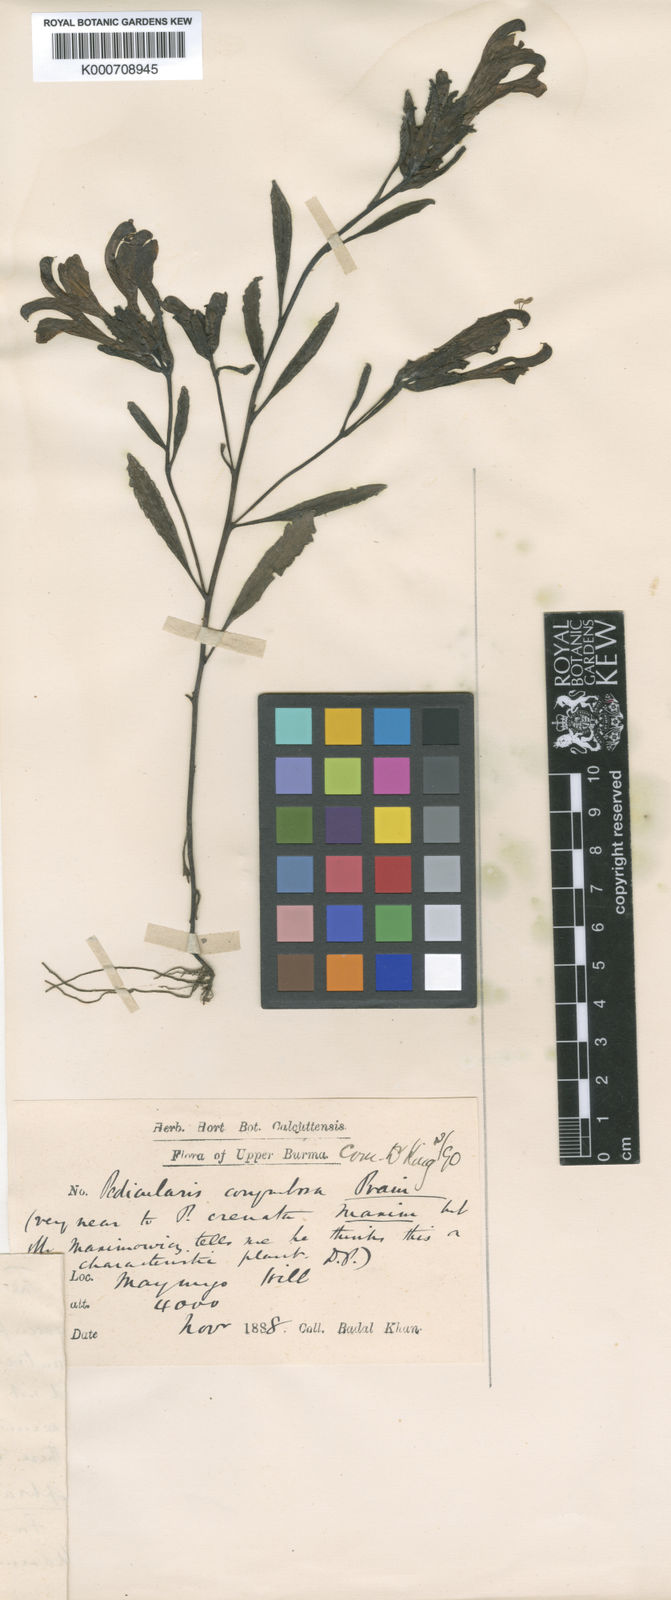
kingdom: Plantae
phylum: Tracheophyta
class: Magnoliopsida
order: Lamiales
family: Orobanchaceae
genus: Pedicularis
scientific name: Pedicularis evrardii
